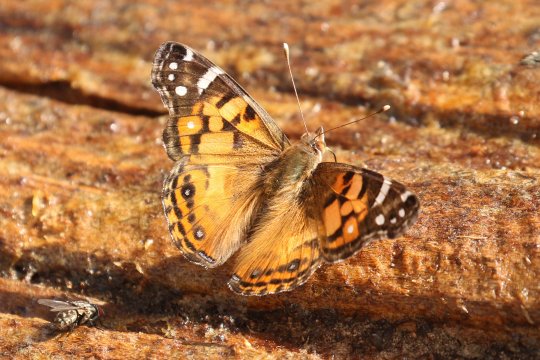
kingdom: Animalia
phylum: Arthropoda
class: Insecta
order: Lepidoptera
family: Nymphalidae
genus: Vanessa
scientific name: Vanessa virginiensis
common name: American Lady
